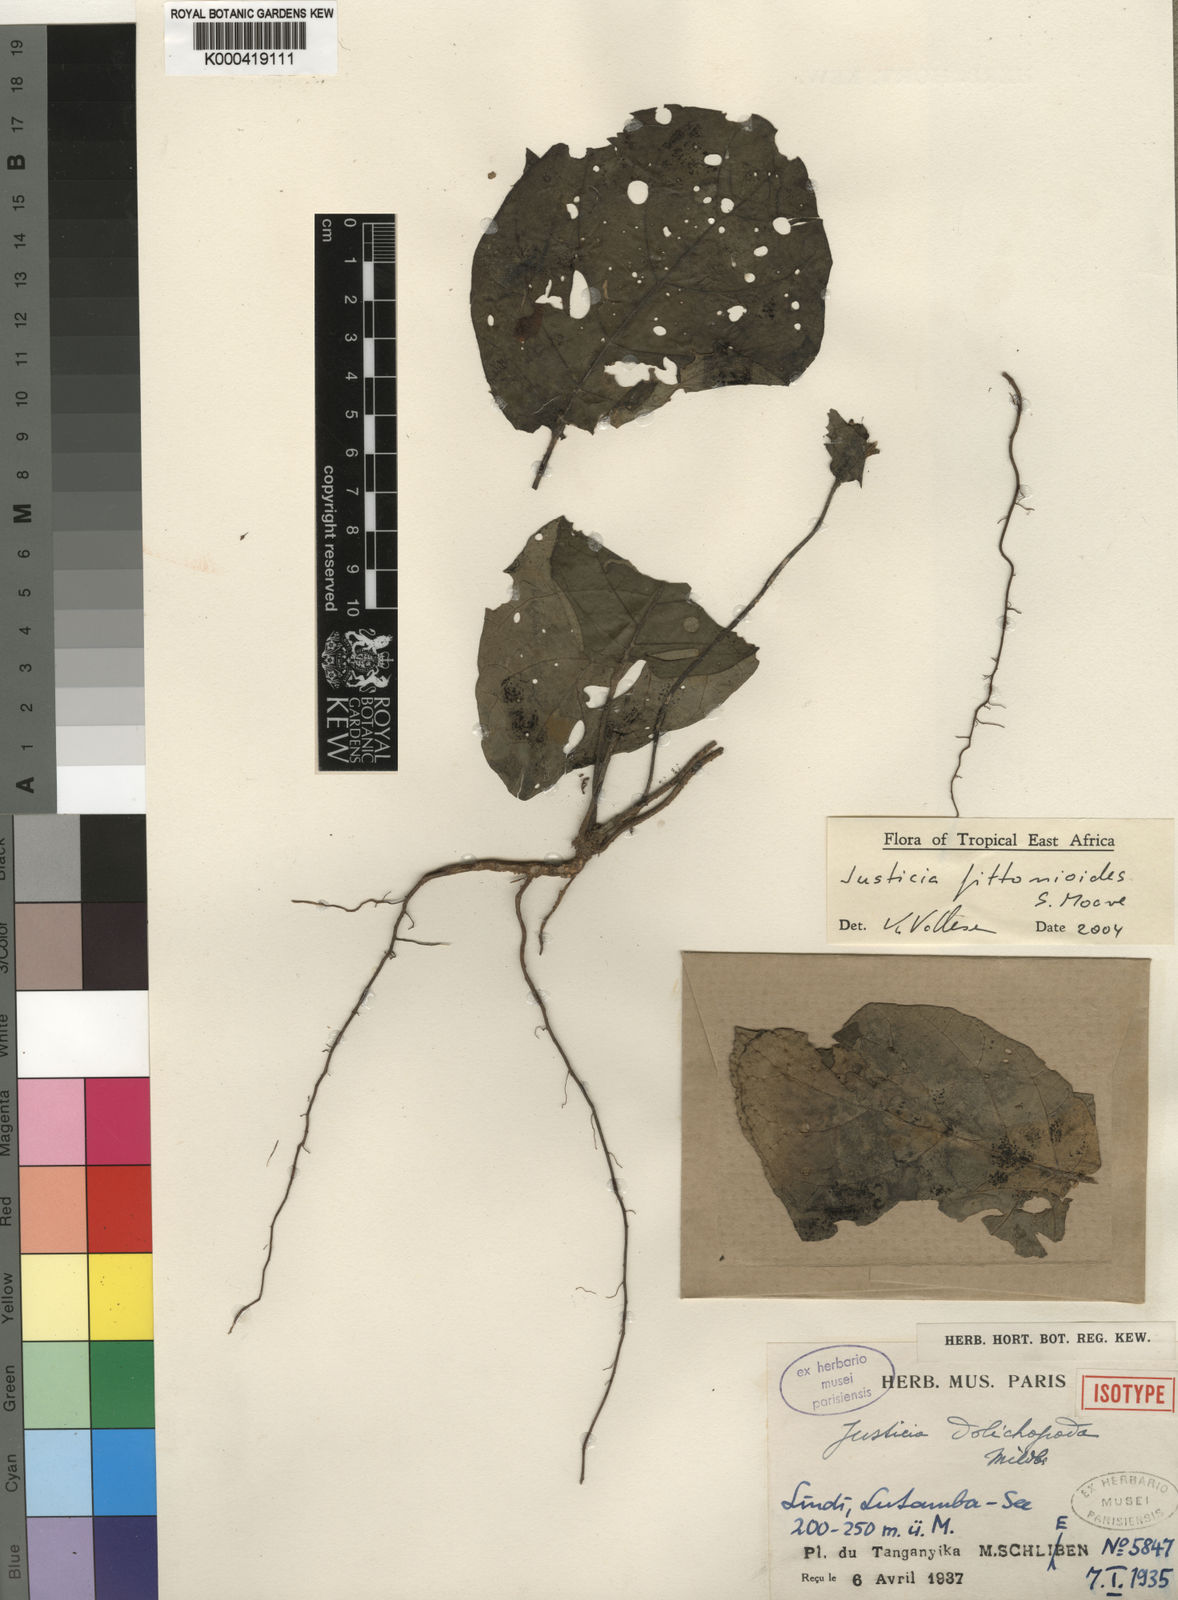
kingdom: Plantae
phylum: Tracheophyta
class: Magnoliopsida
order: Lamiales
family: Acanthaceae
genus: Nicoteba
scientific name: Nicoteba fittonioides
